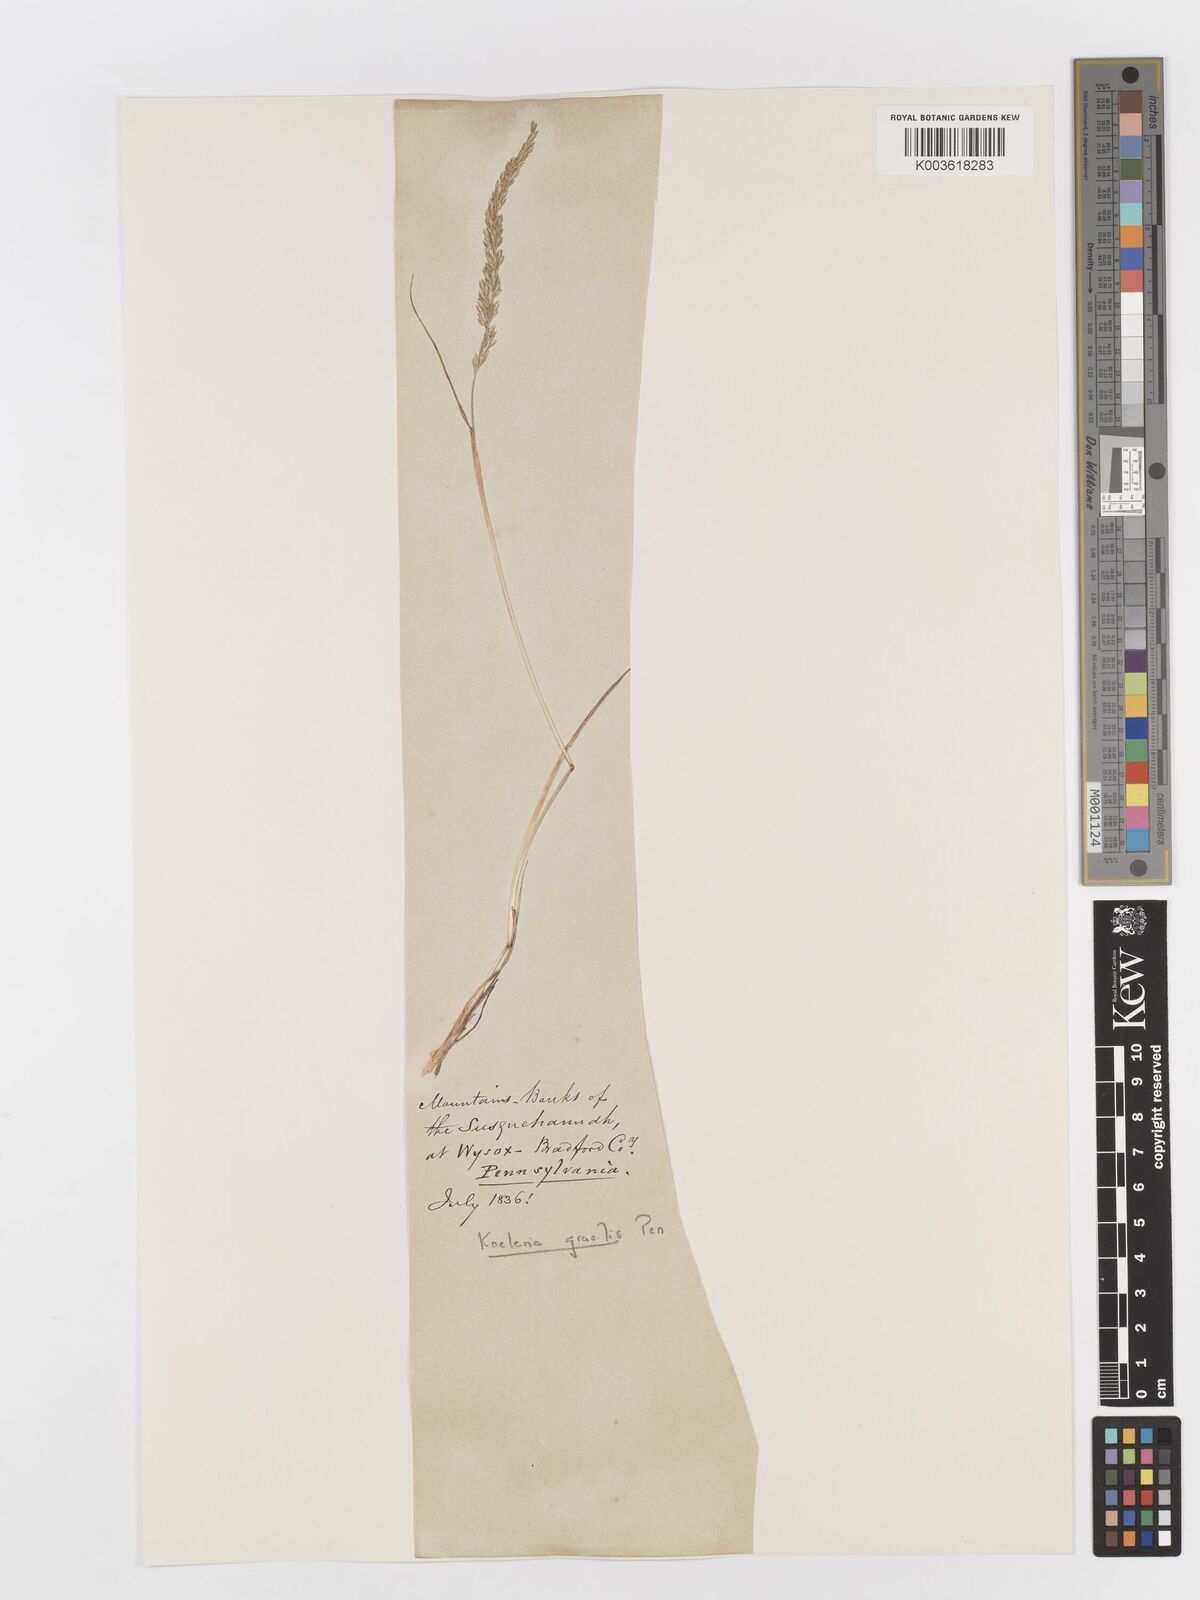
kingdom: Plantae
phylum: Tracheophyta
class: Liliopsida
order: Poales
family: Poaceae
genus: Koeleria
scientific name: Koeleria macrantha
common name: Crested hair-grass
